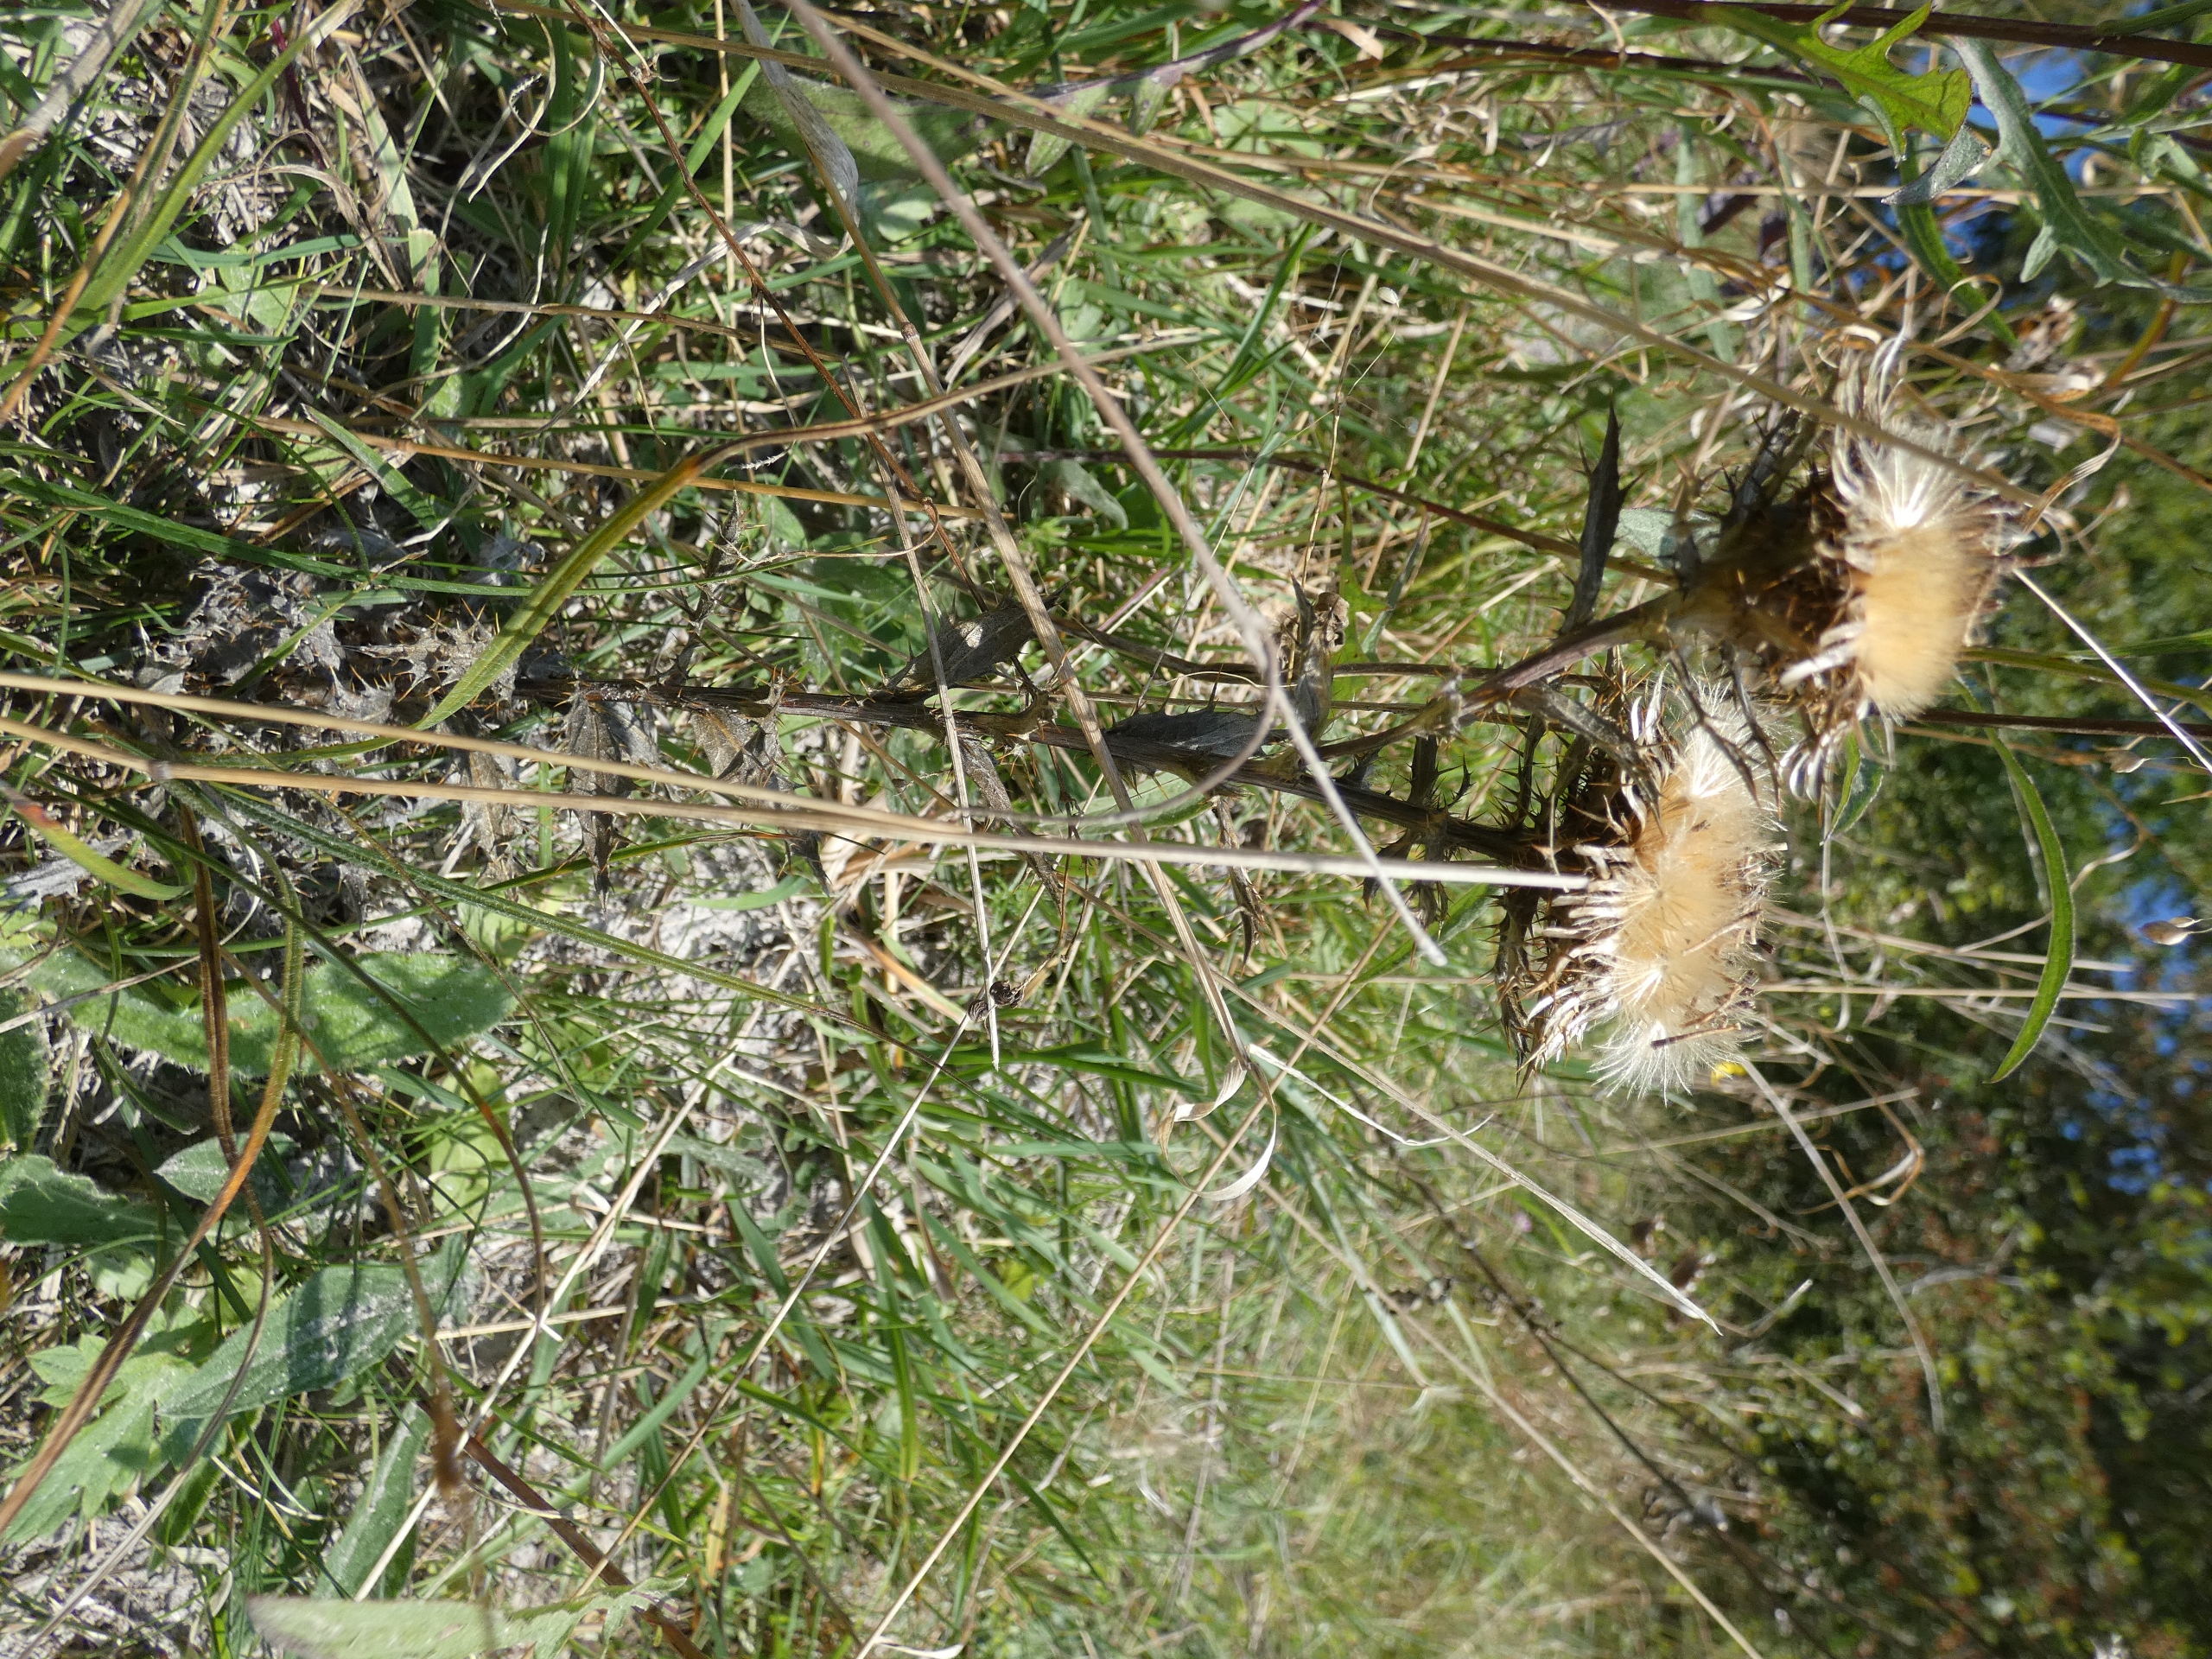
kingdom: Plantae
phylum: Tracheophyta
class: Magnoliopsida
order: Asterales
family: Asteraceae
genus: Carlina
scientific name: Carlina vulgaris
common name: Bakketidsel
